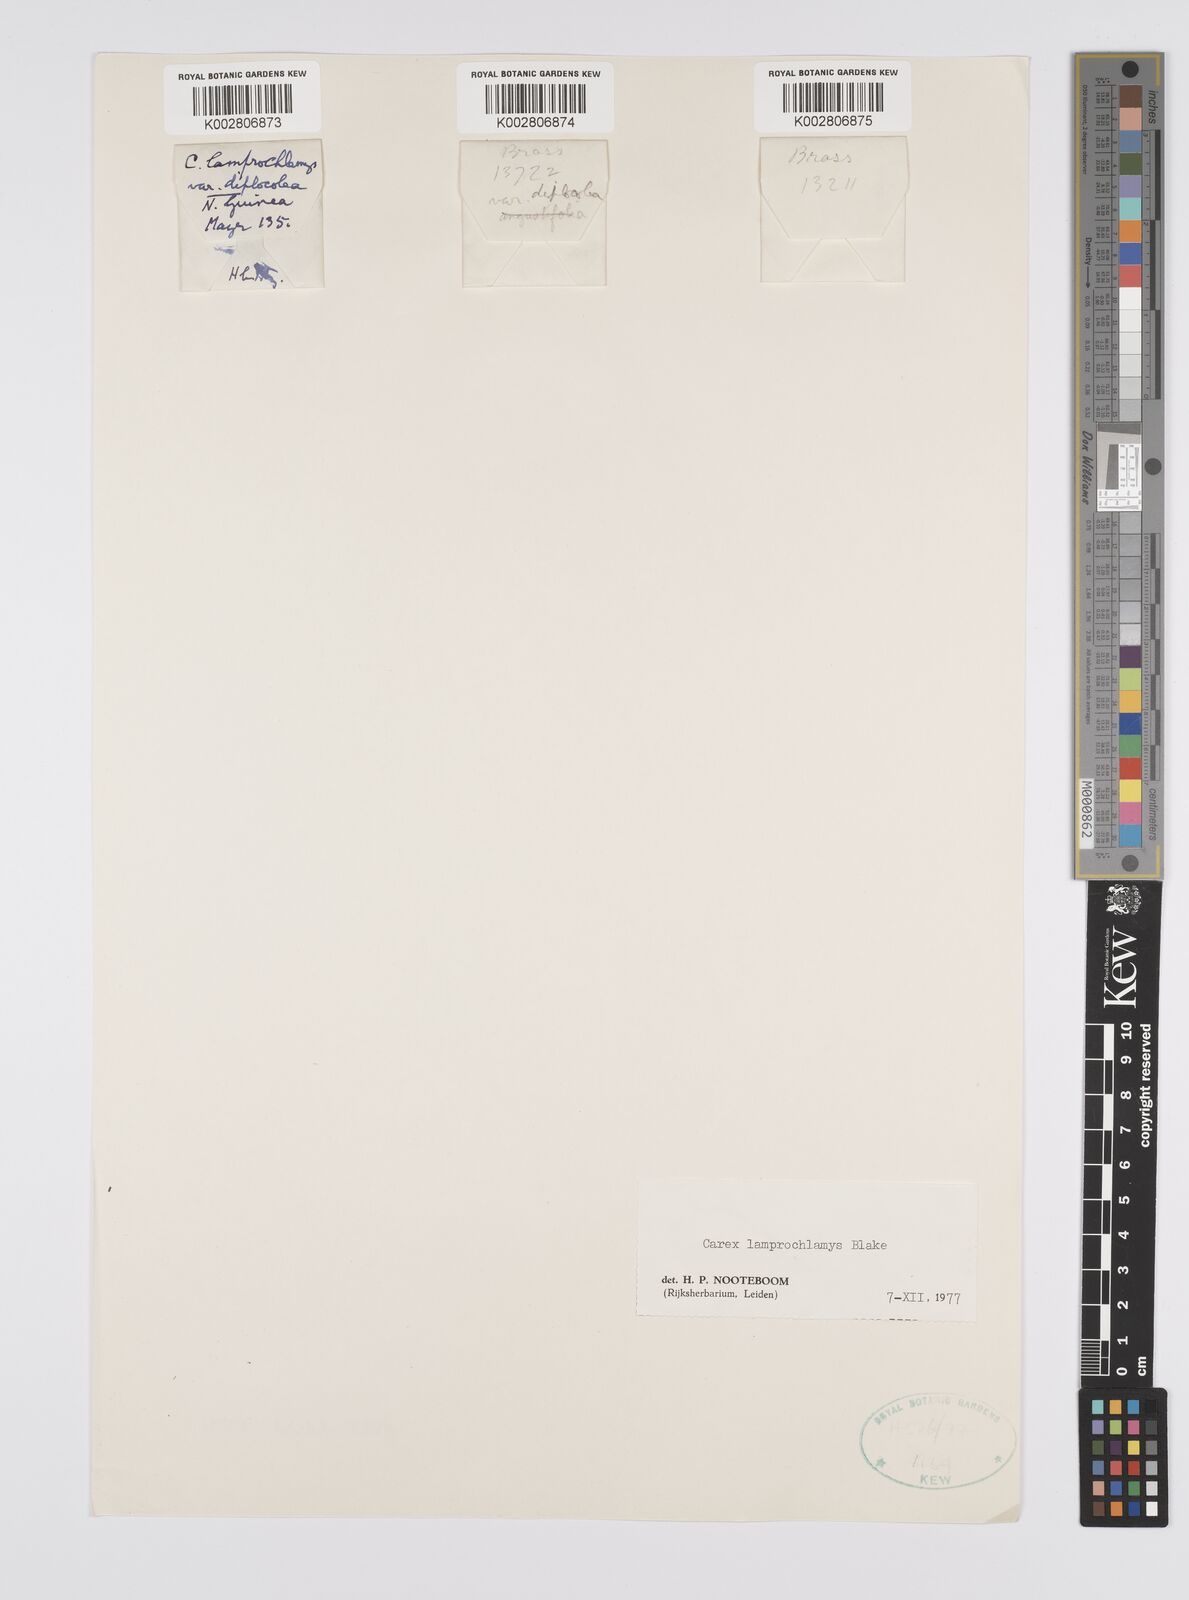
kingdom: Plantae
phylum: Tracheophyta
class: Liliopsida
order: Poales
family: Cyperaceae
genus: Carex
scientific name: Carex lamprochlamys
